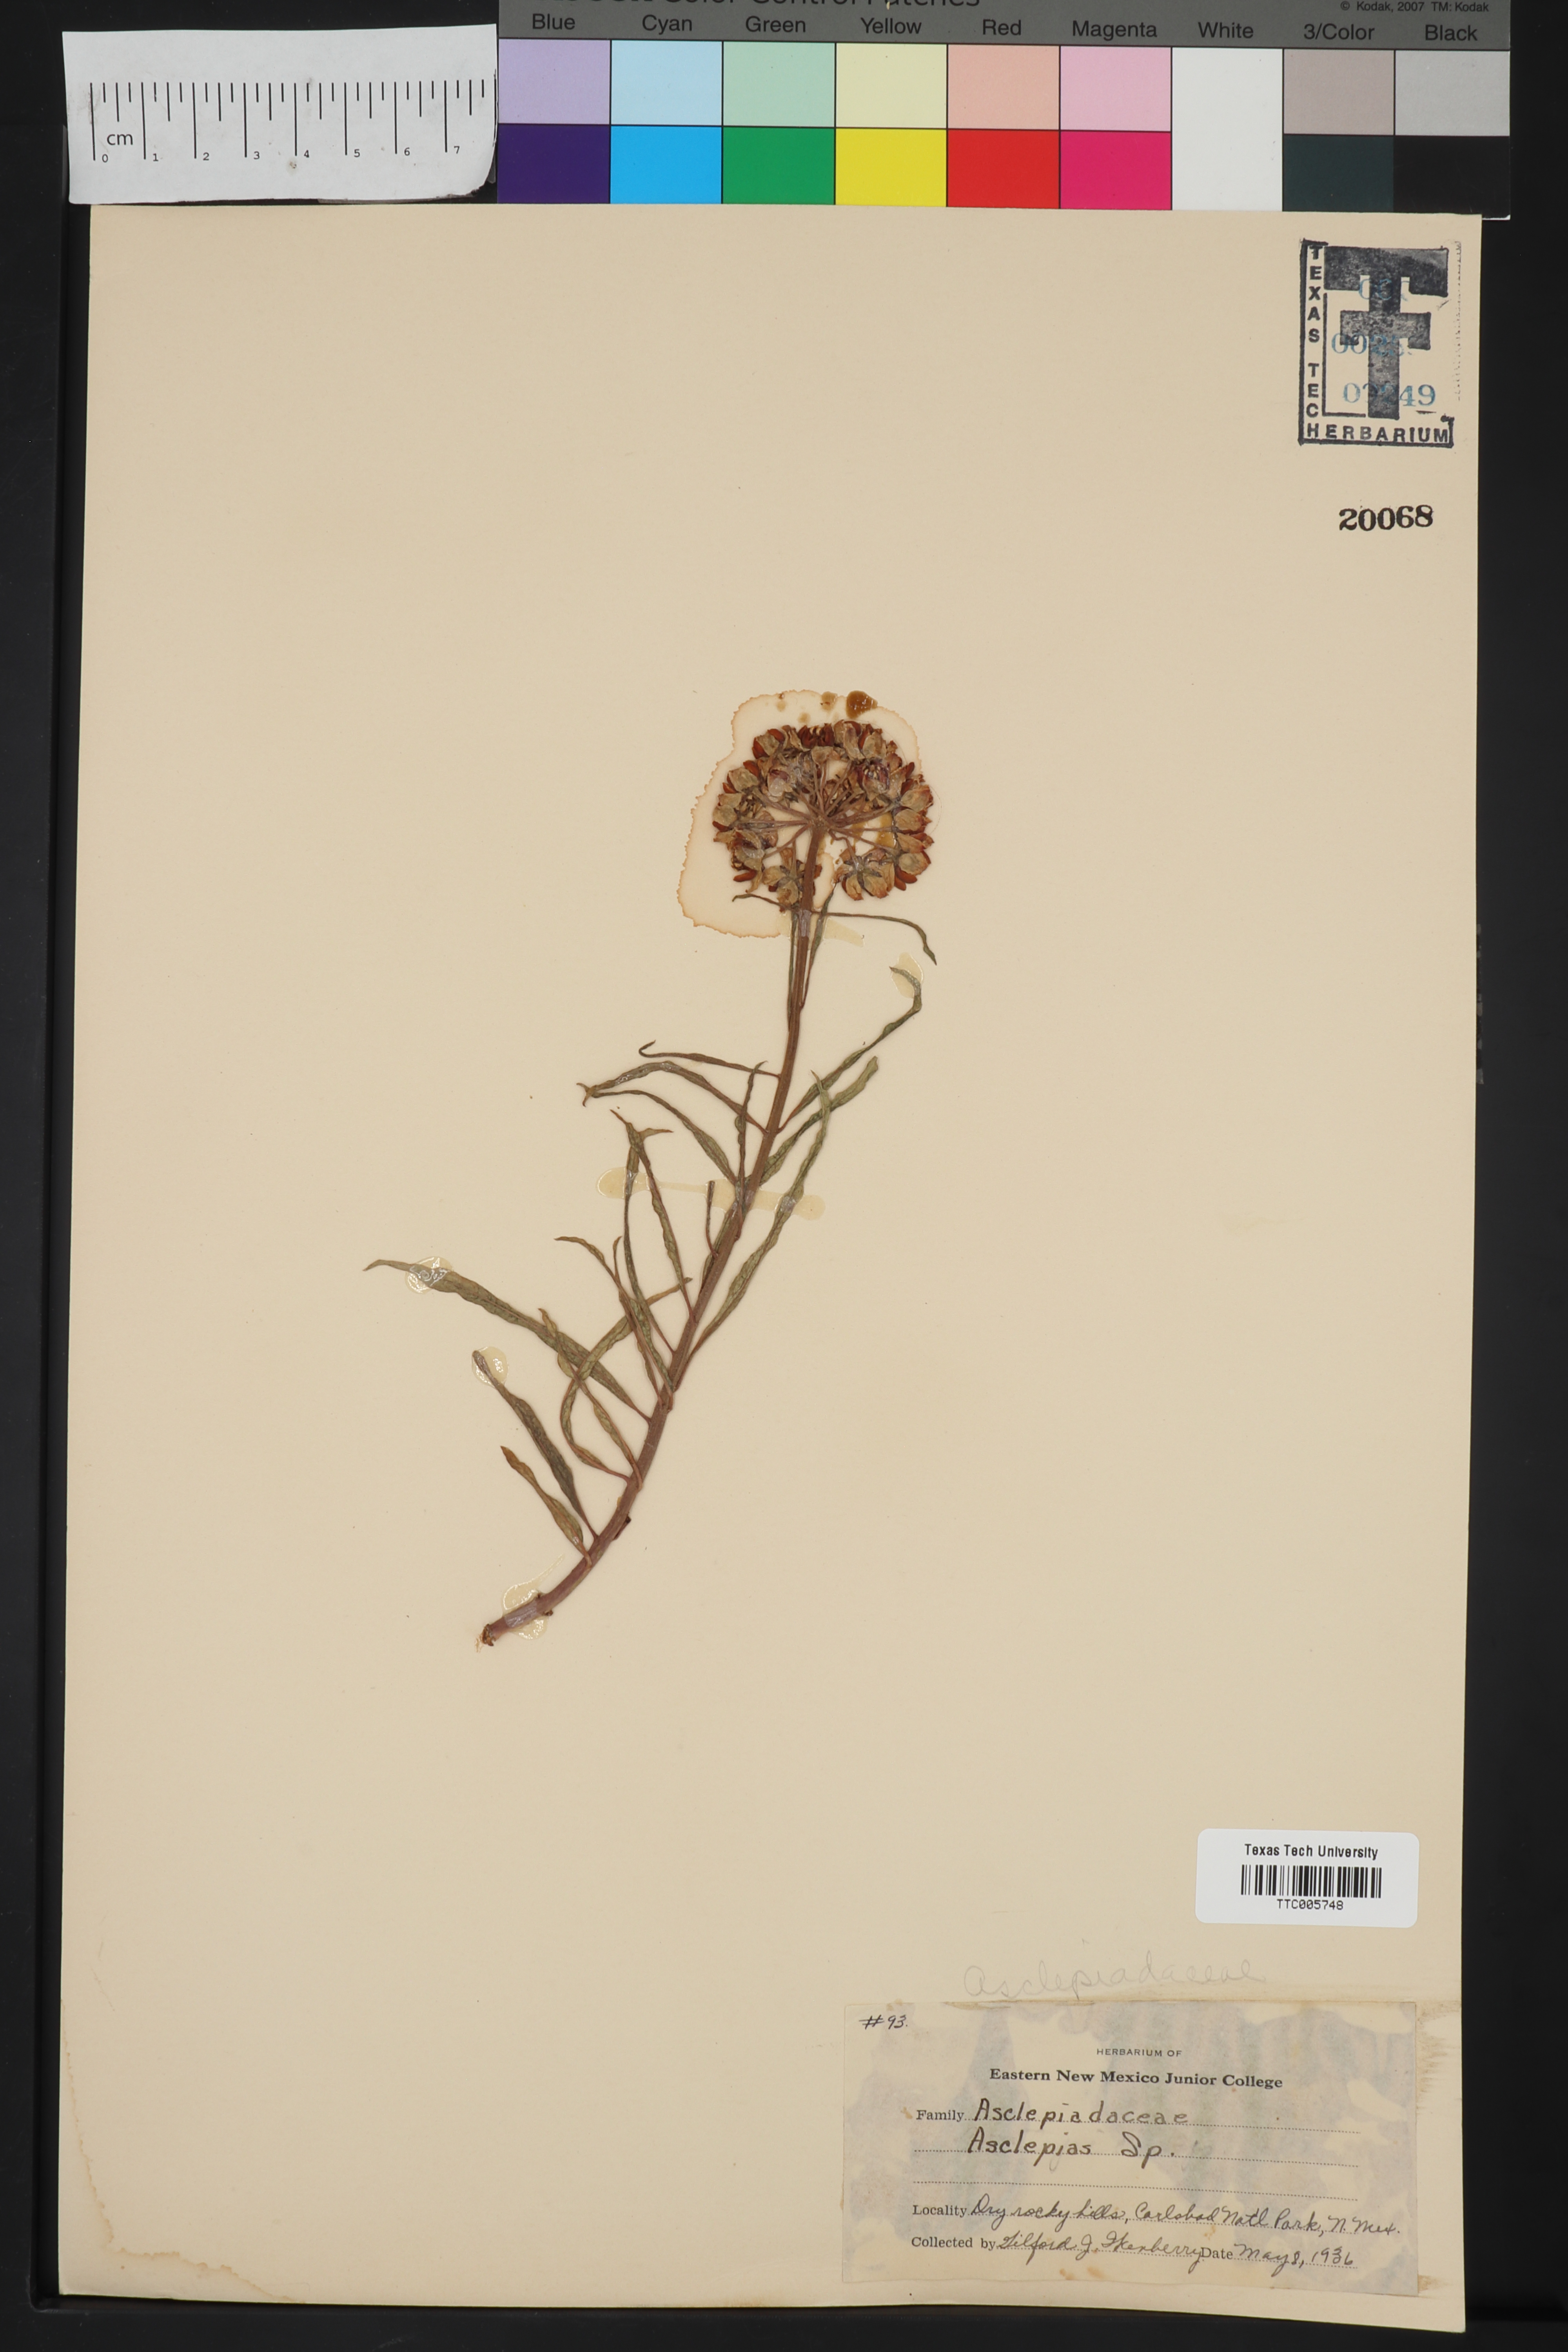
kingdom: Plantae
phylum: Tracheophyta
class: Magnoliopsida
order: Gentianales
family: Apocynaceae
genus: Asclepias
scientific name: Asclepias
